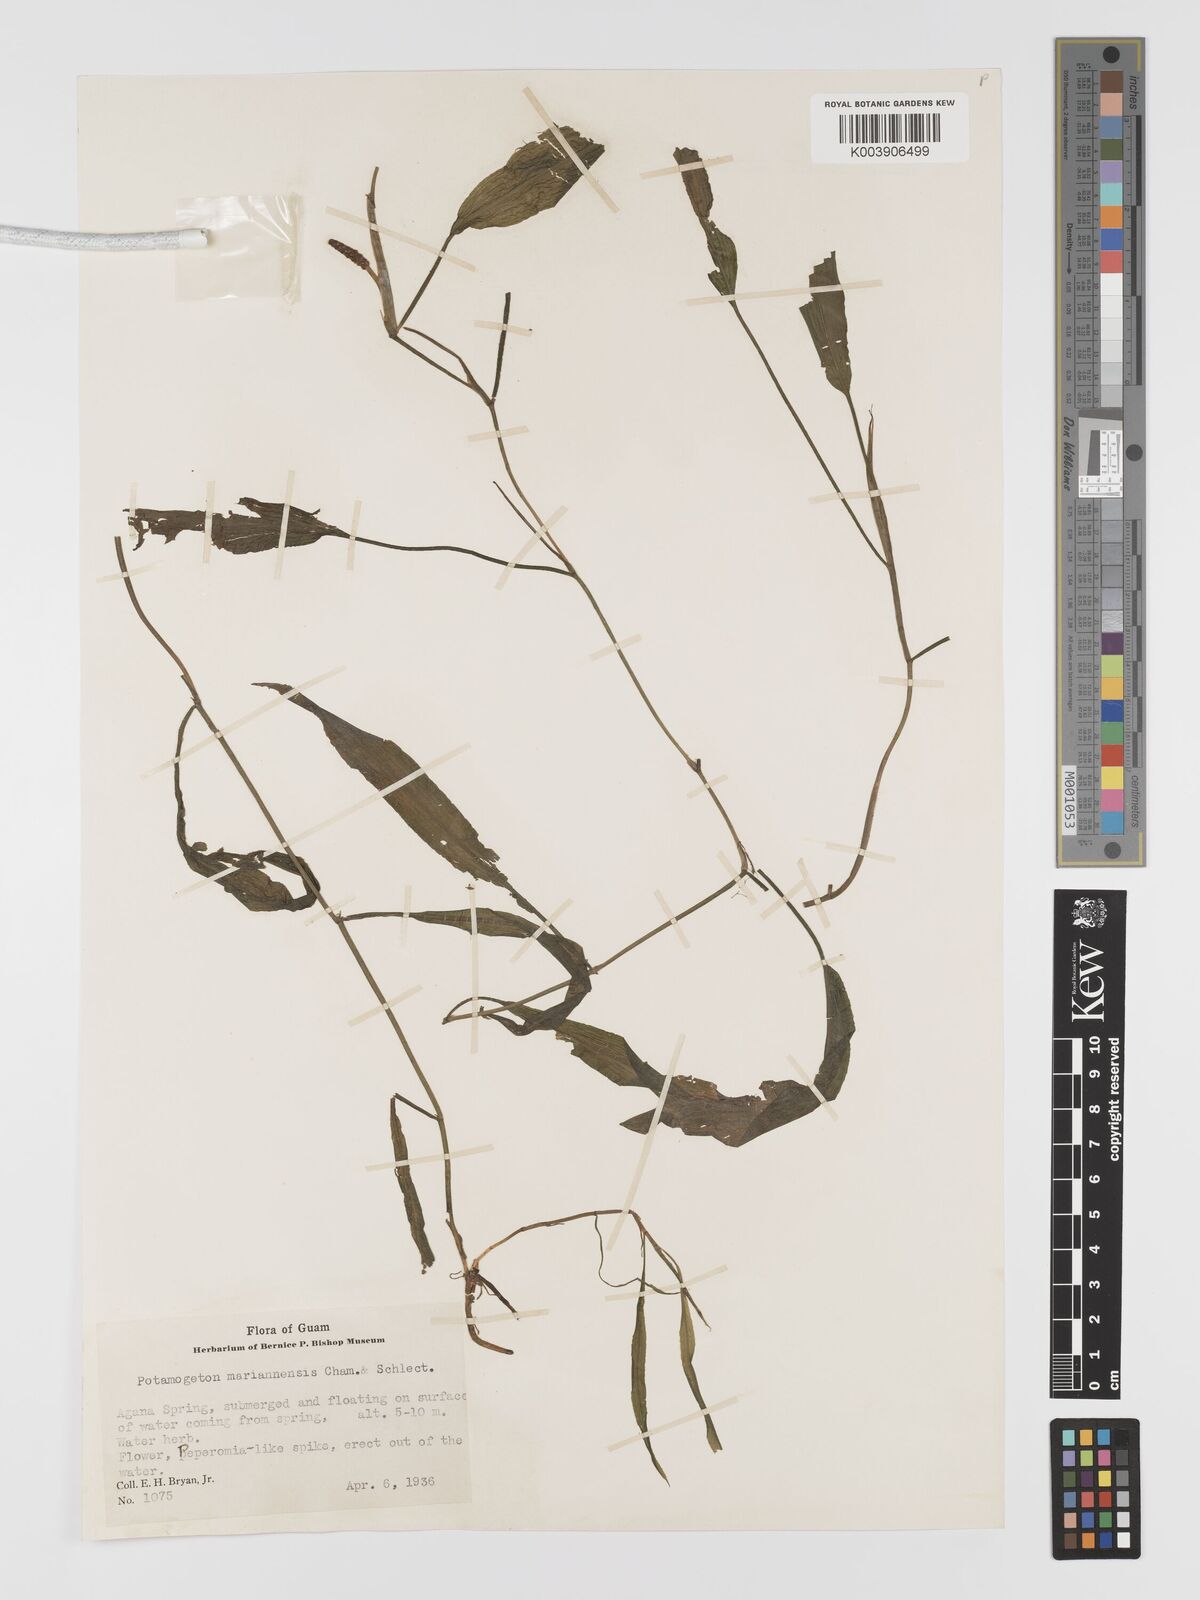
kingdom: Plantae
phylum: Tracheophyta
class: Liliopsida
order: Alismatales
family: Potamogetonaceae
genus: Potamogeton
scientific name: Potamogeton nodosus
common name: Loddon pondweed
